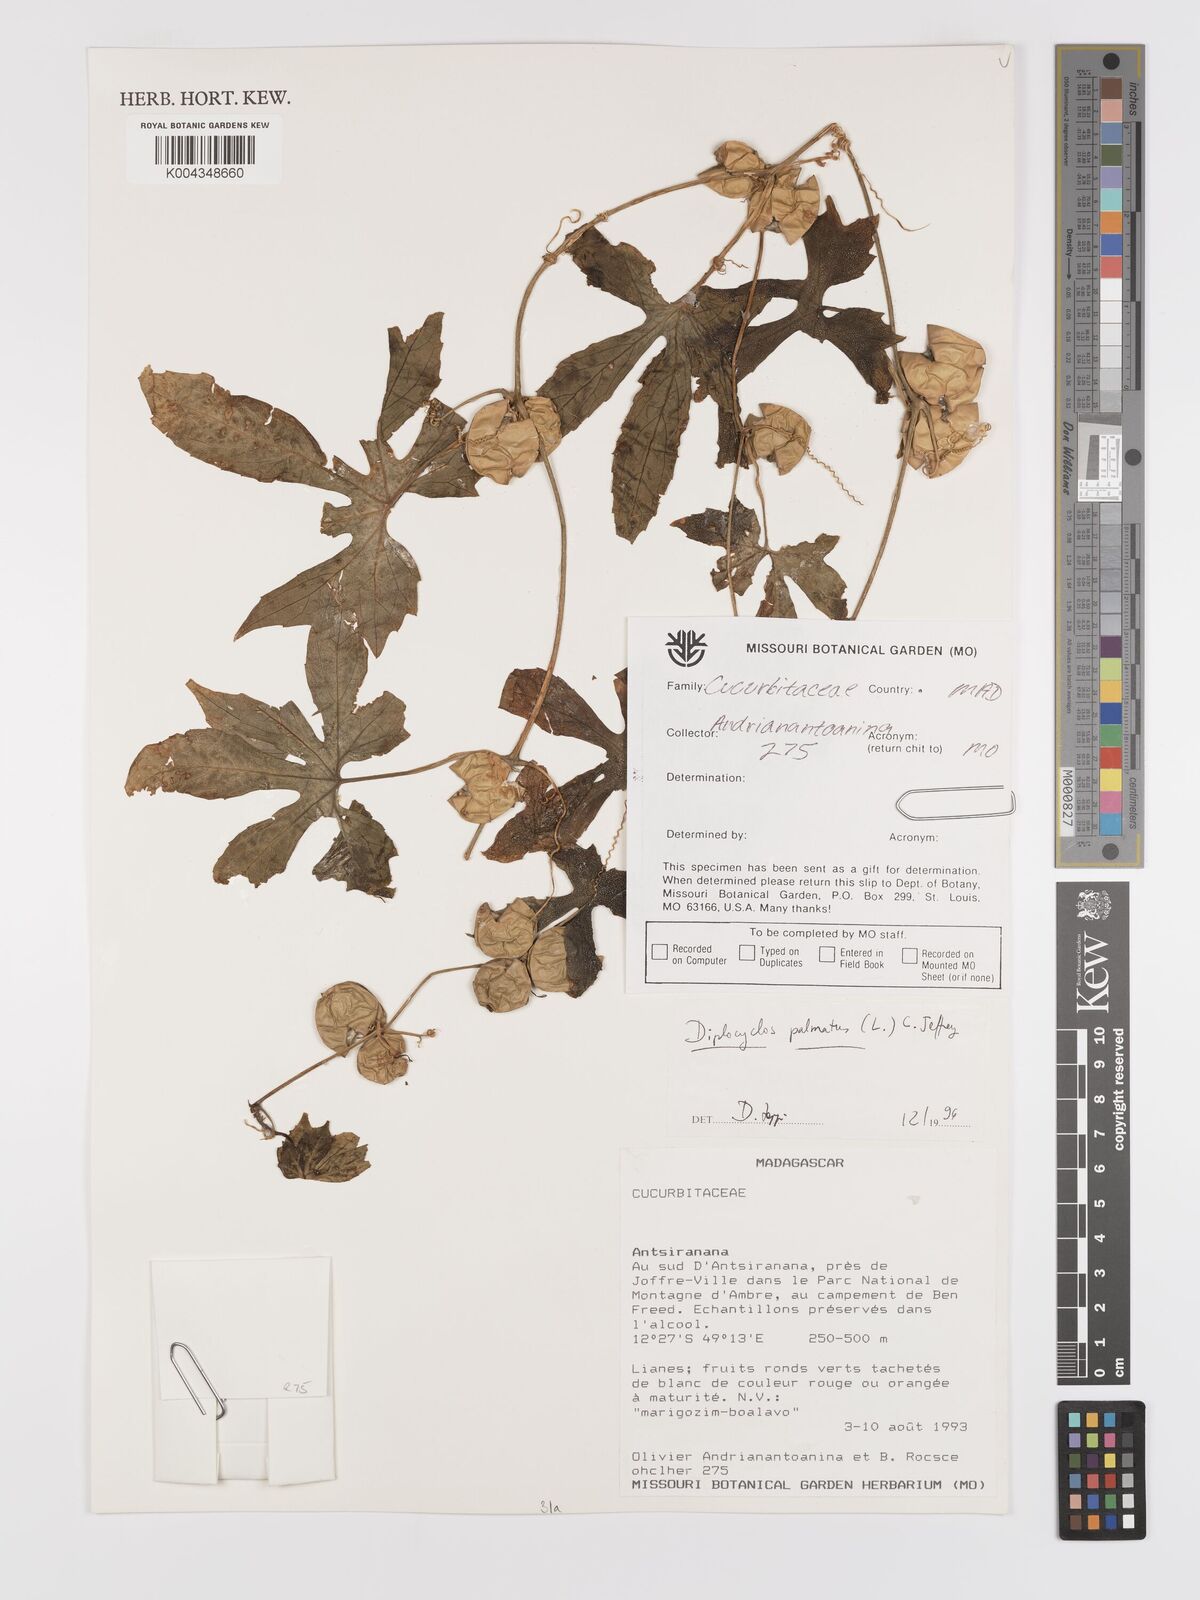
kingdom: Plantae
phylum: Tracheophyta
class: Magnoliopsida
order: Cucurbitales
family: Cucurbitaceae
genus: Diplocyclos
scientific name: Diplocyclos palmatus
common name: Striped-cucumber
